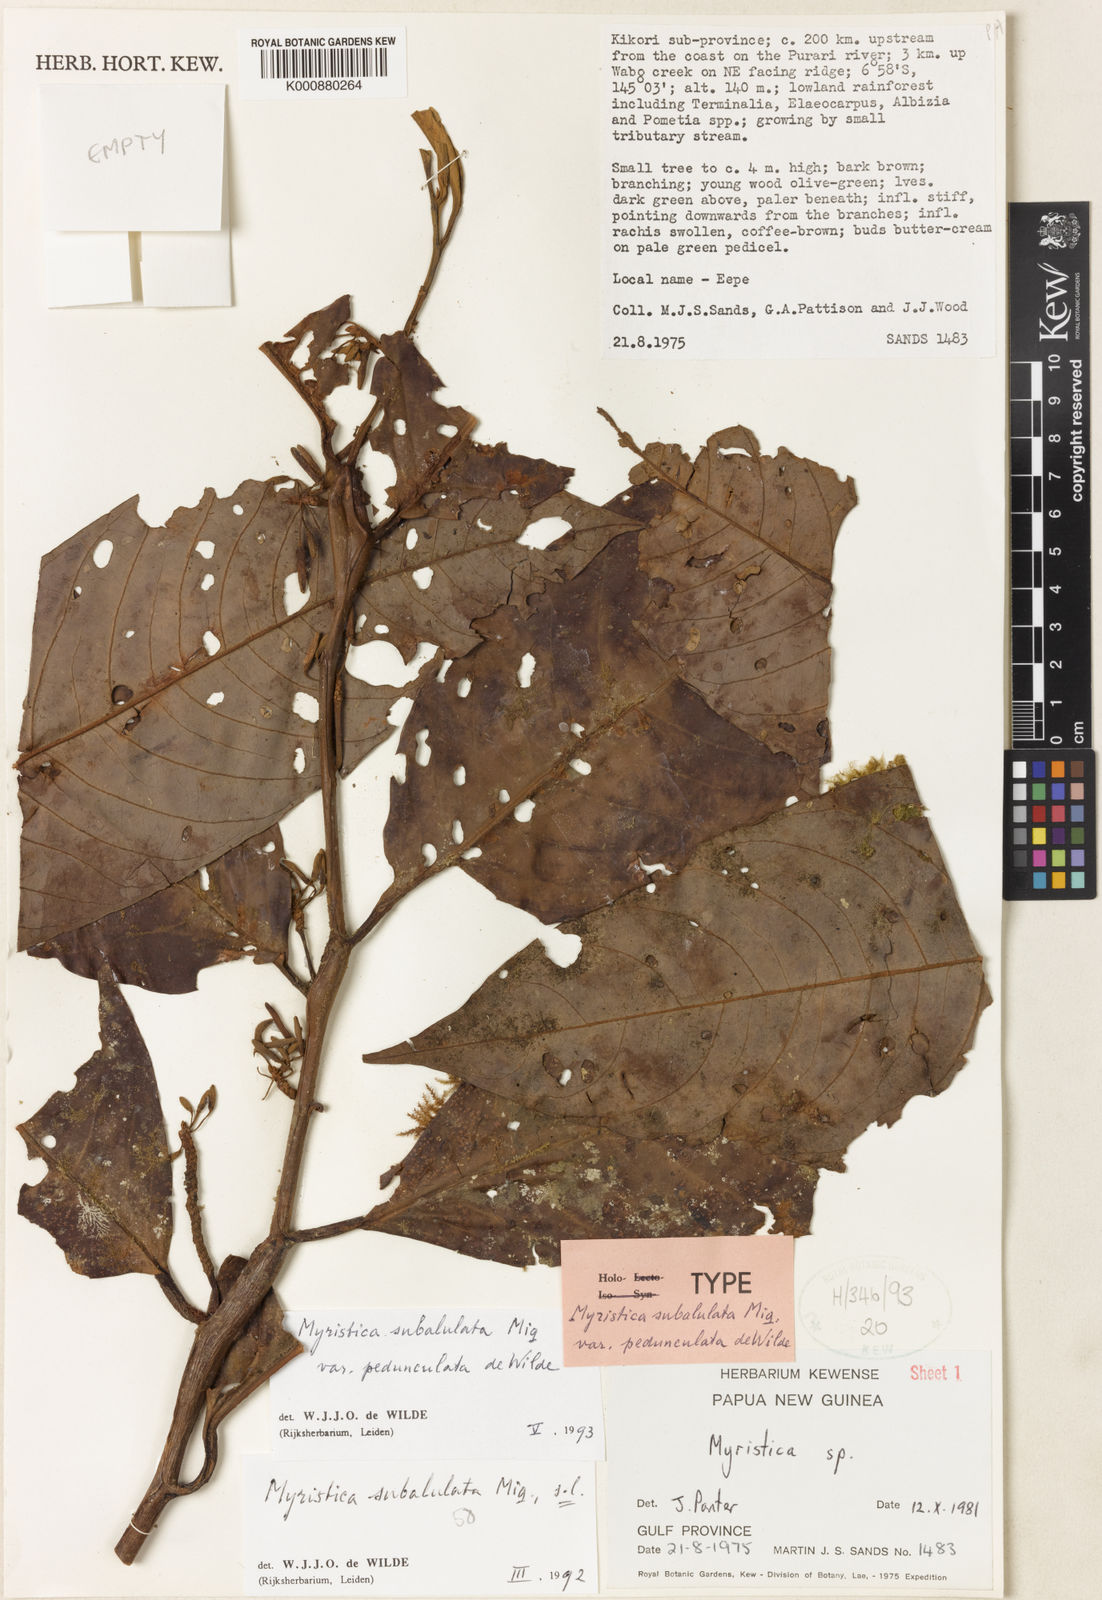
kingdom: Plantae
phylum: Tracheophyta
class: Magnoliopsida
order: Magnoliales
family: Myristicaceae
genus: Myristica
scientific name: Myristica subalulata
